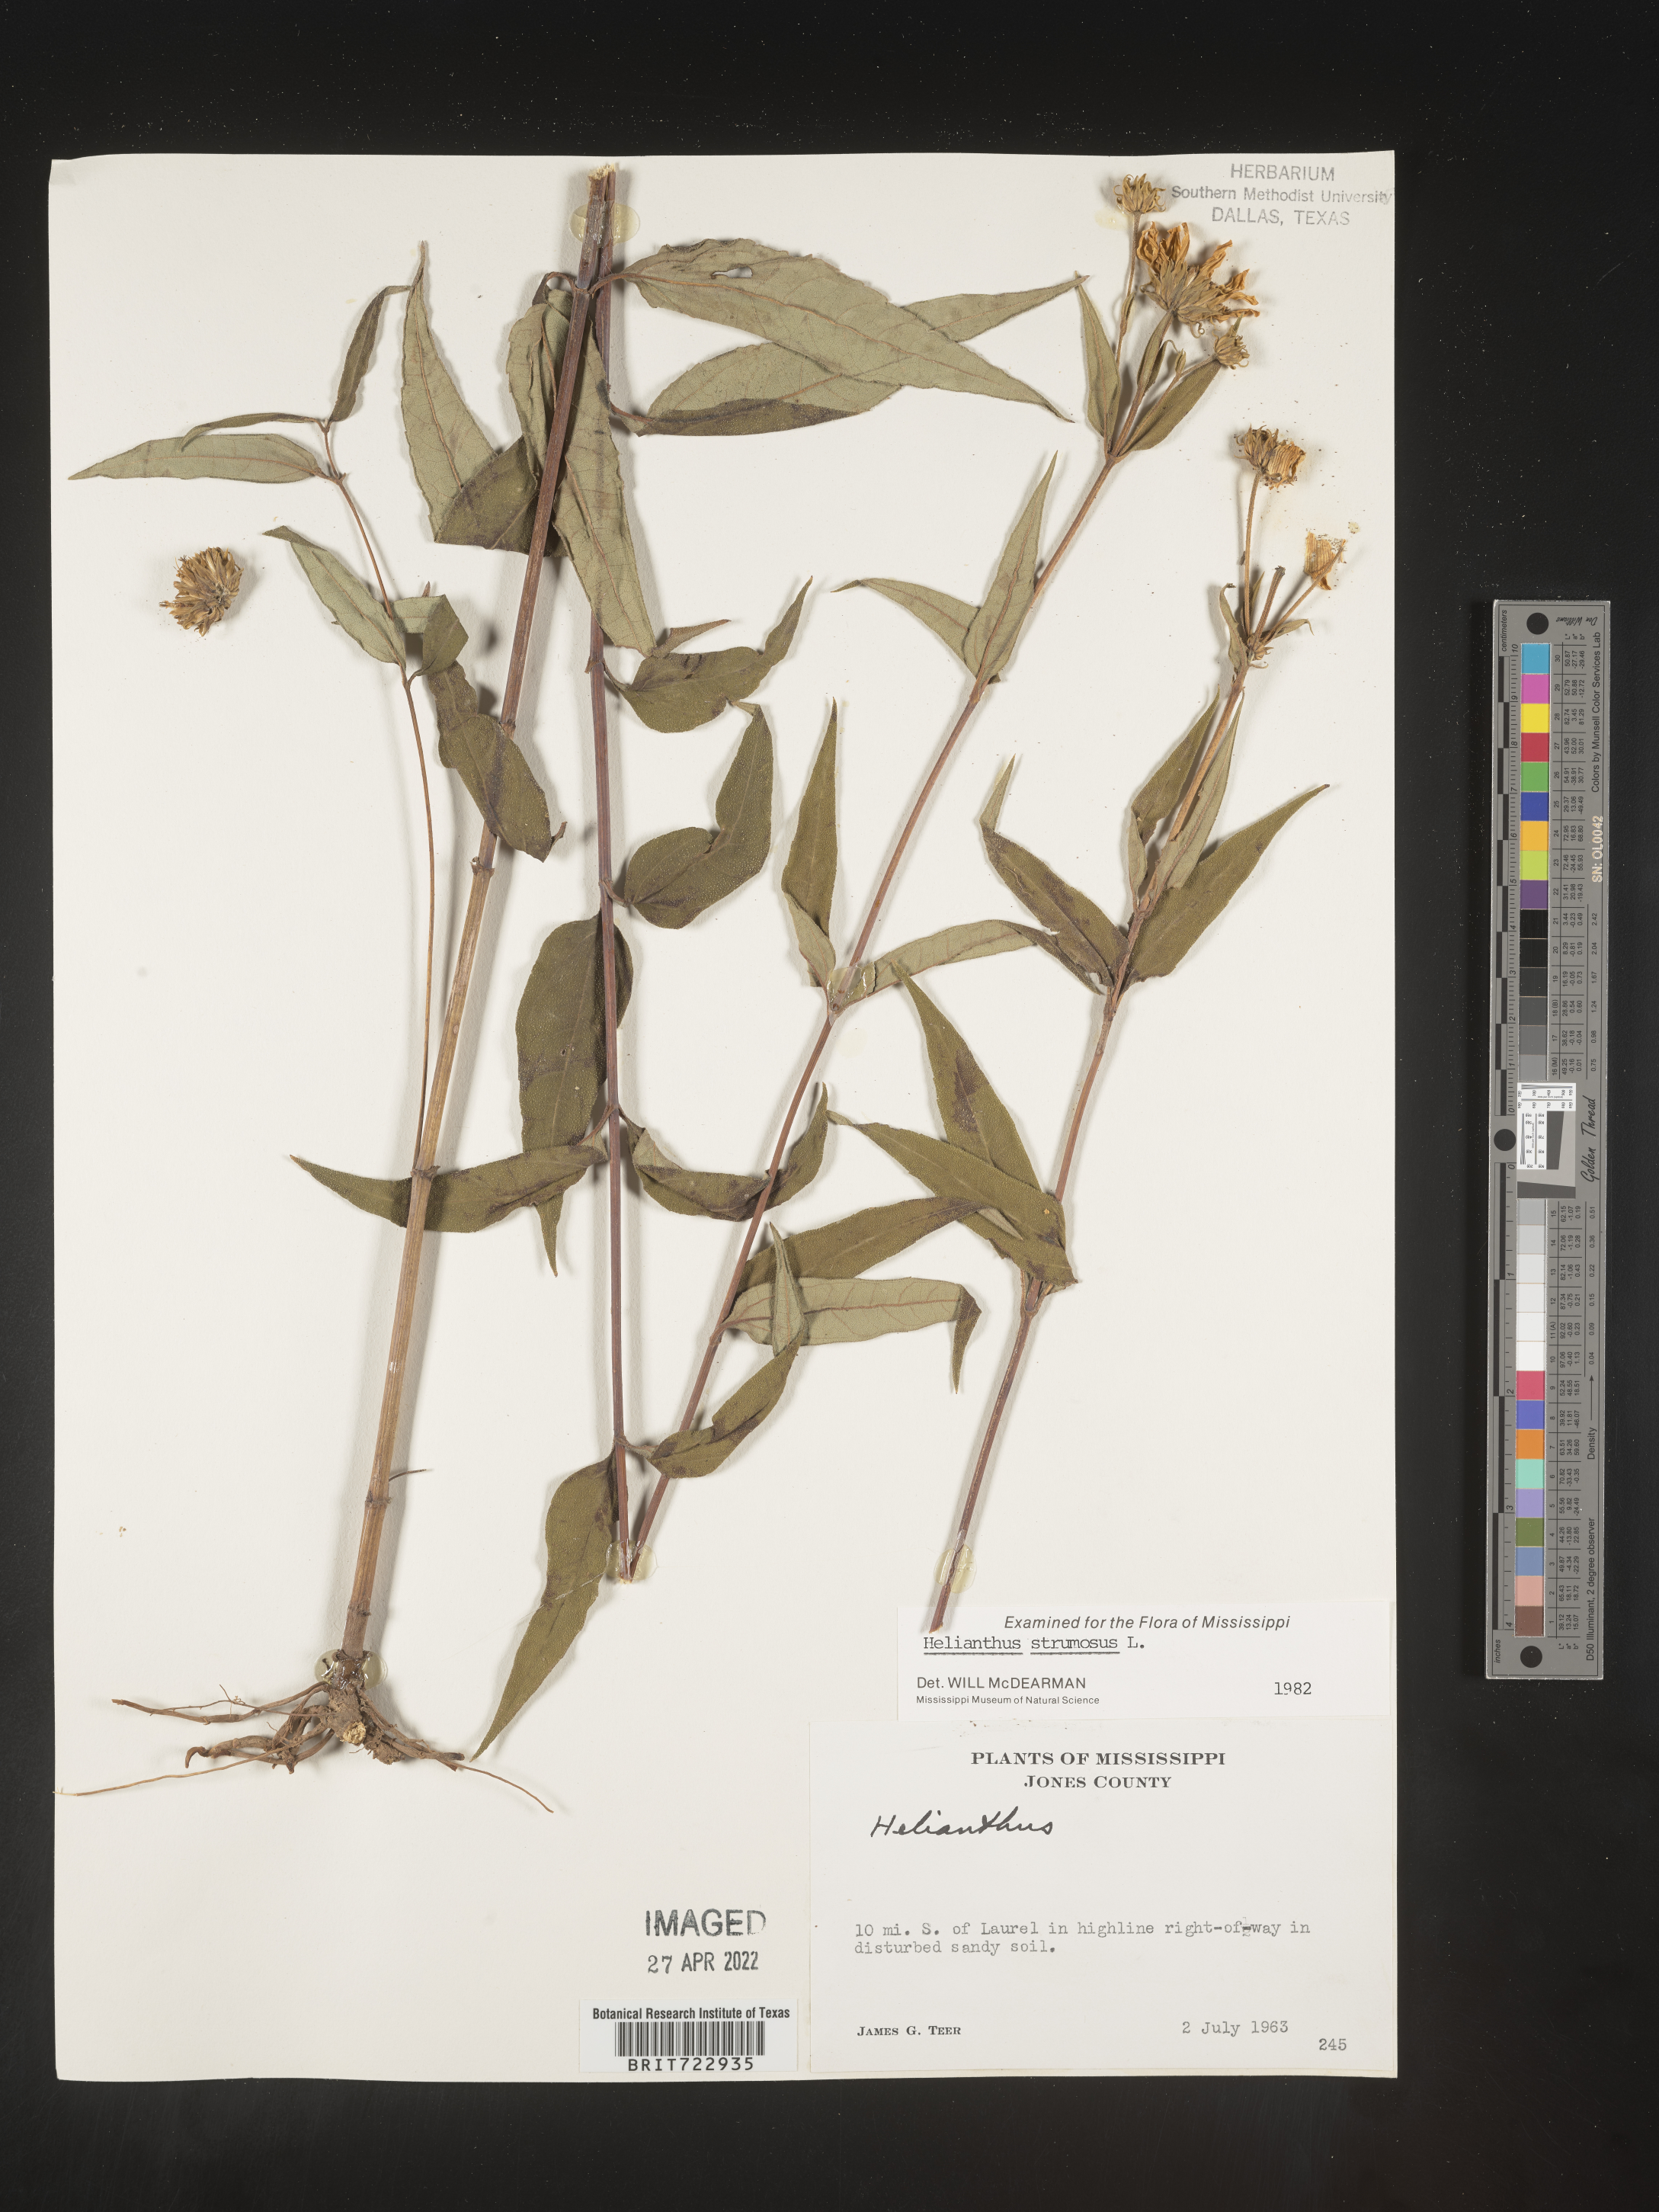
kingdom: Plantae
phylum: Tracheophyta
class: Magnoliopsida
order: Asterales
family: Asteraceae
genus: Helianthus
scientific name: Helianthus strumosus
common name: Pale-leaved sunflower
